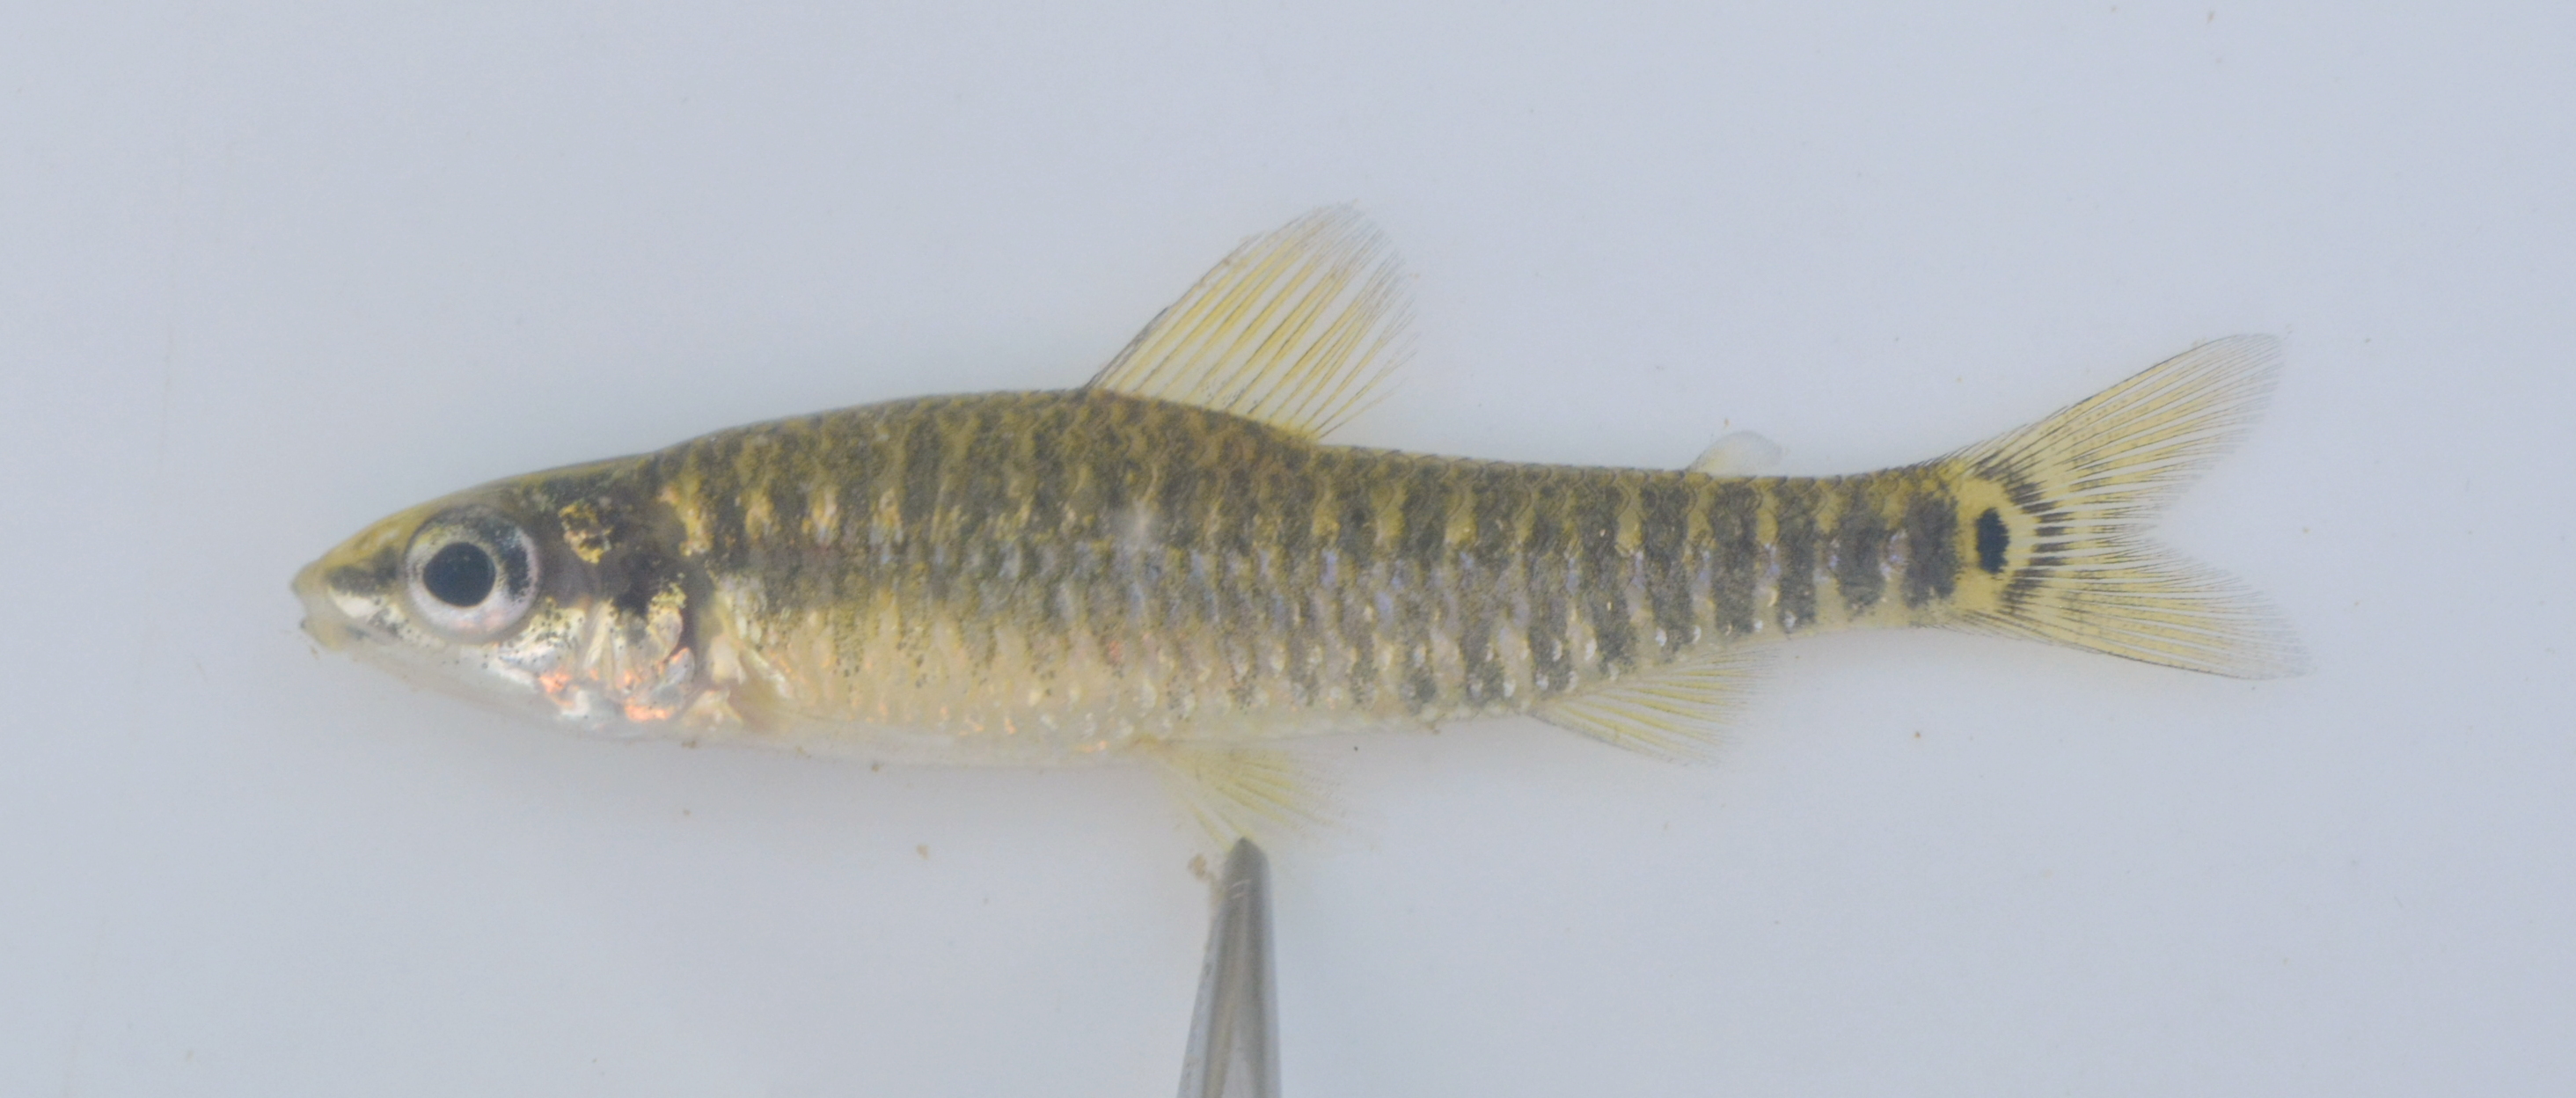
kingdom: Animalia
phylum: Chordata
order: Characiformes
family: Distichodontidae
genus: Nannocharax
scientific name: Nannocharax fasciatus
